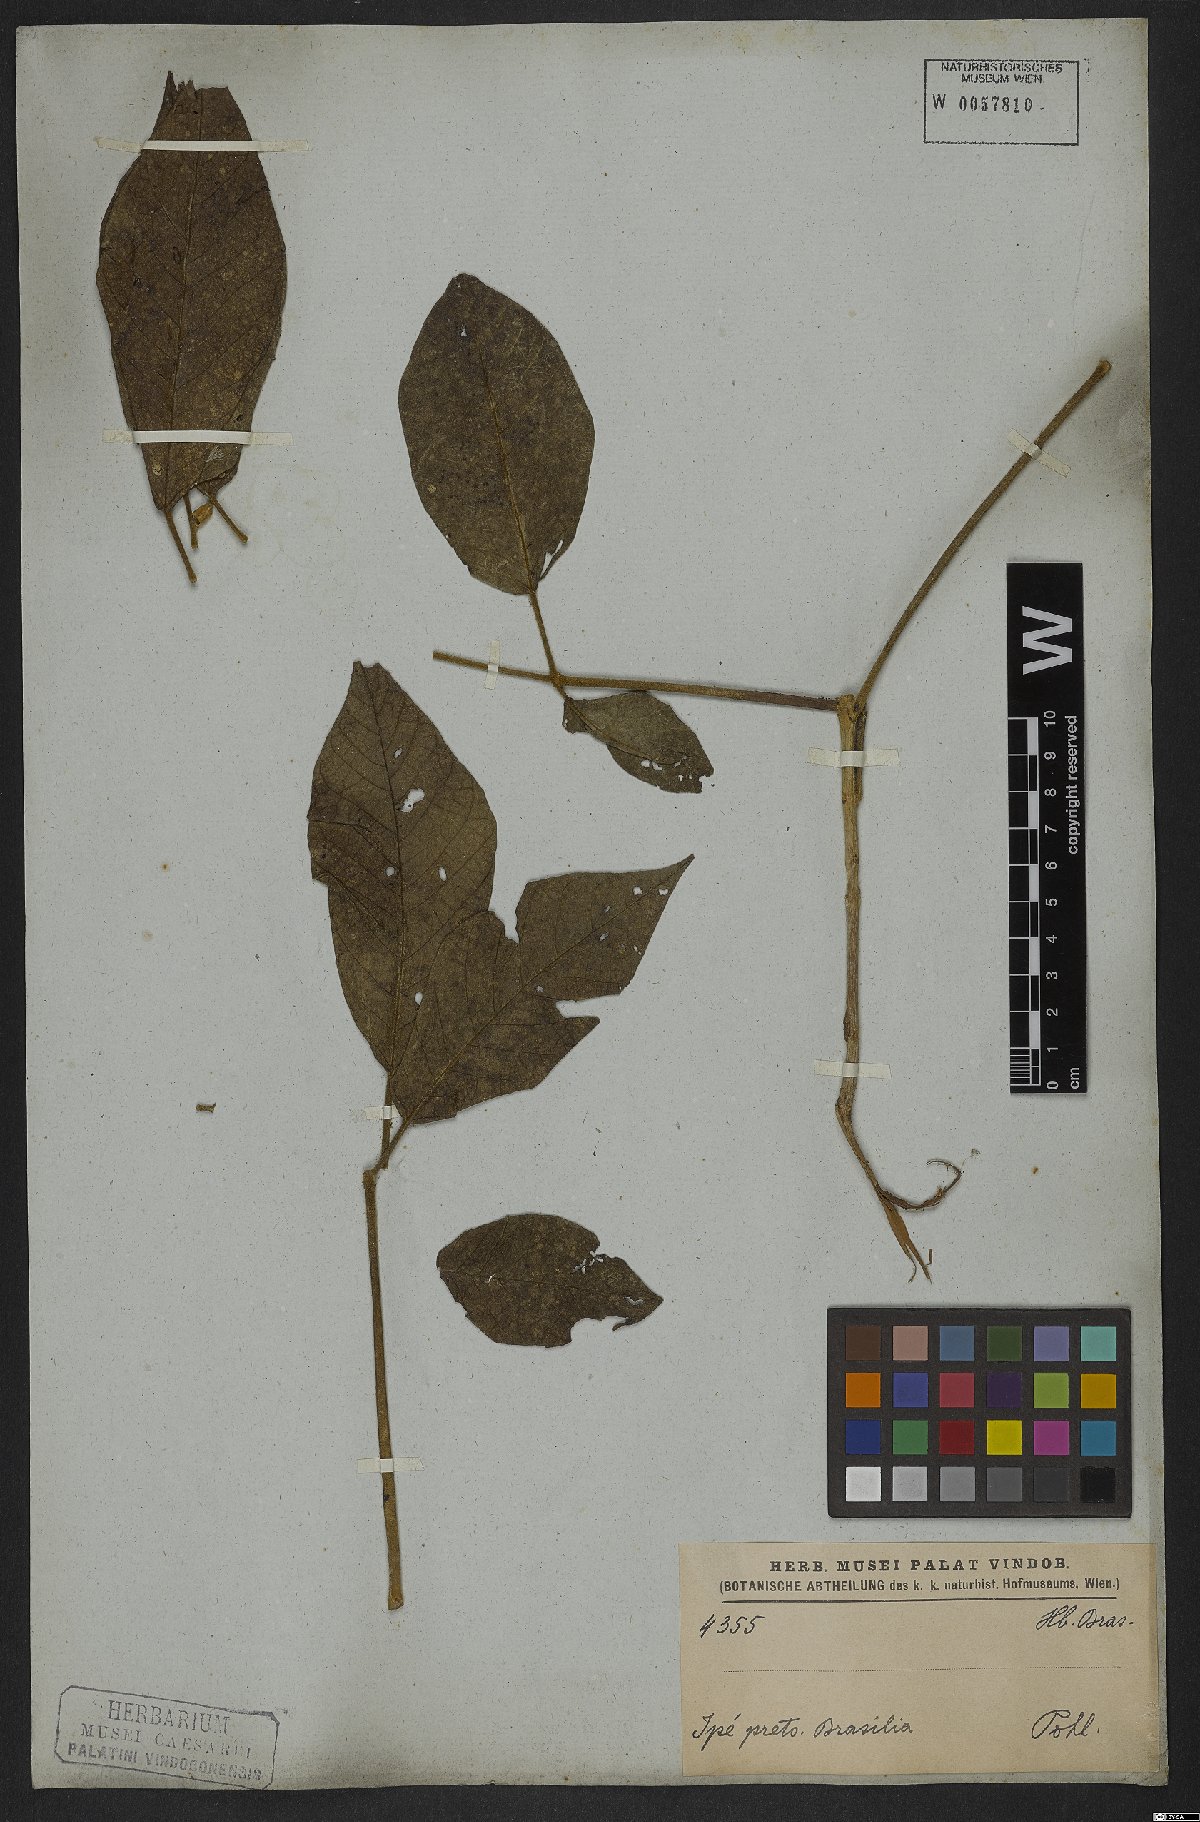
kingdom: Plantae
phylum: Tracheophyta
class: Magnoliopsida
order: Lamiales
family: Bignoniaceae
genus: Tabebuia
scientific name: Tabebuia aurea
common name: Caribbean trumpet-tree
